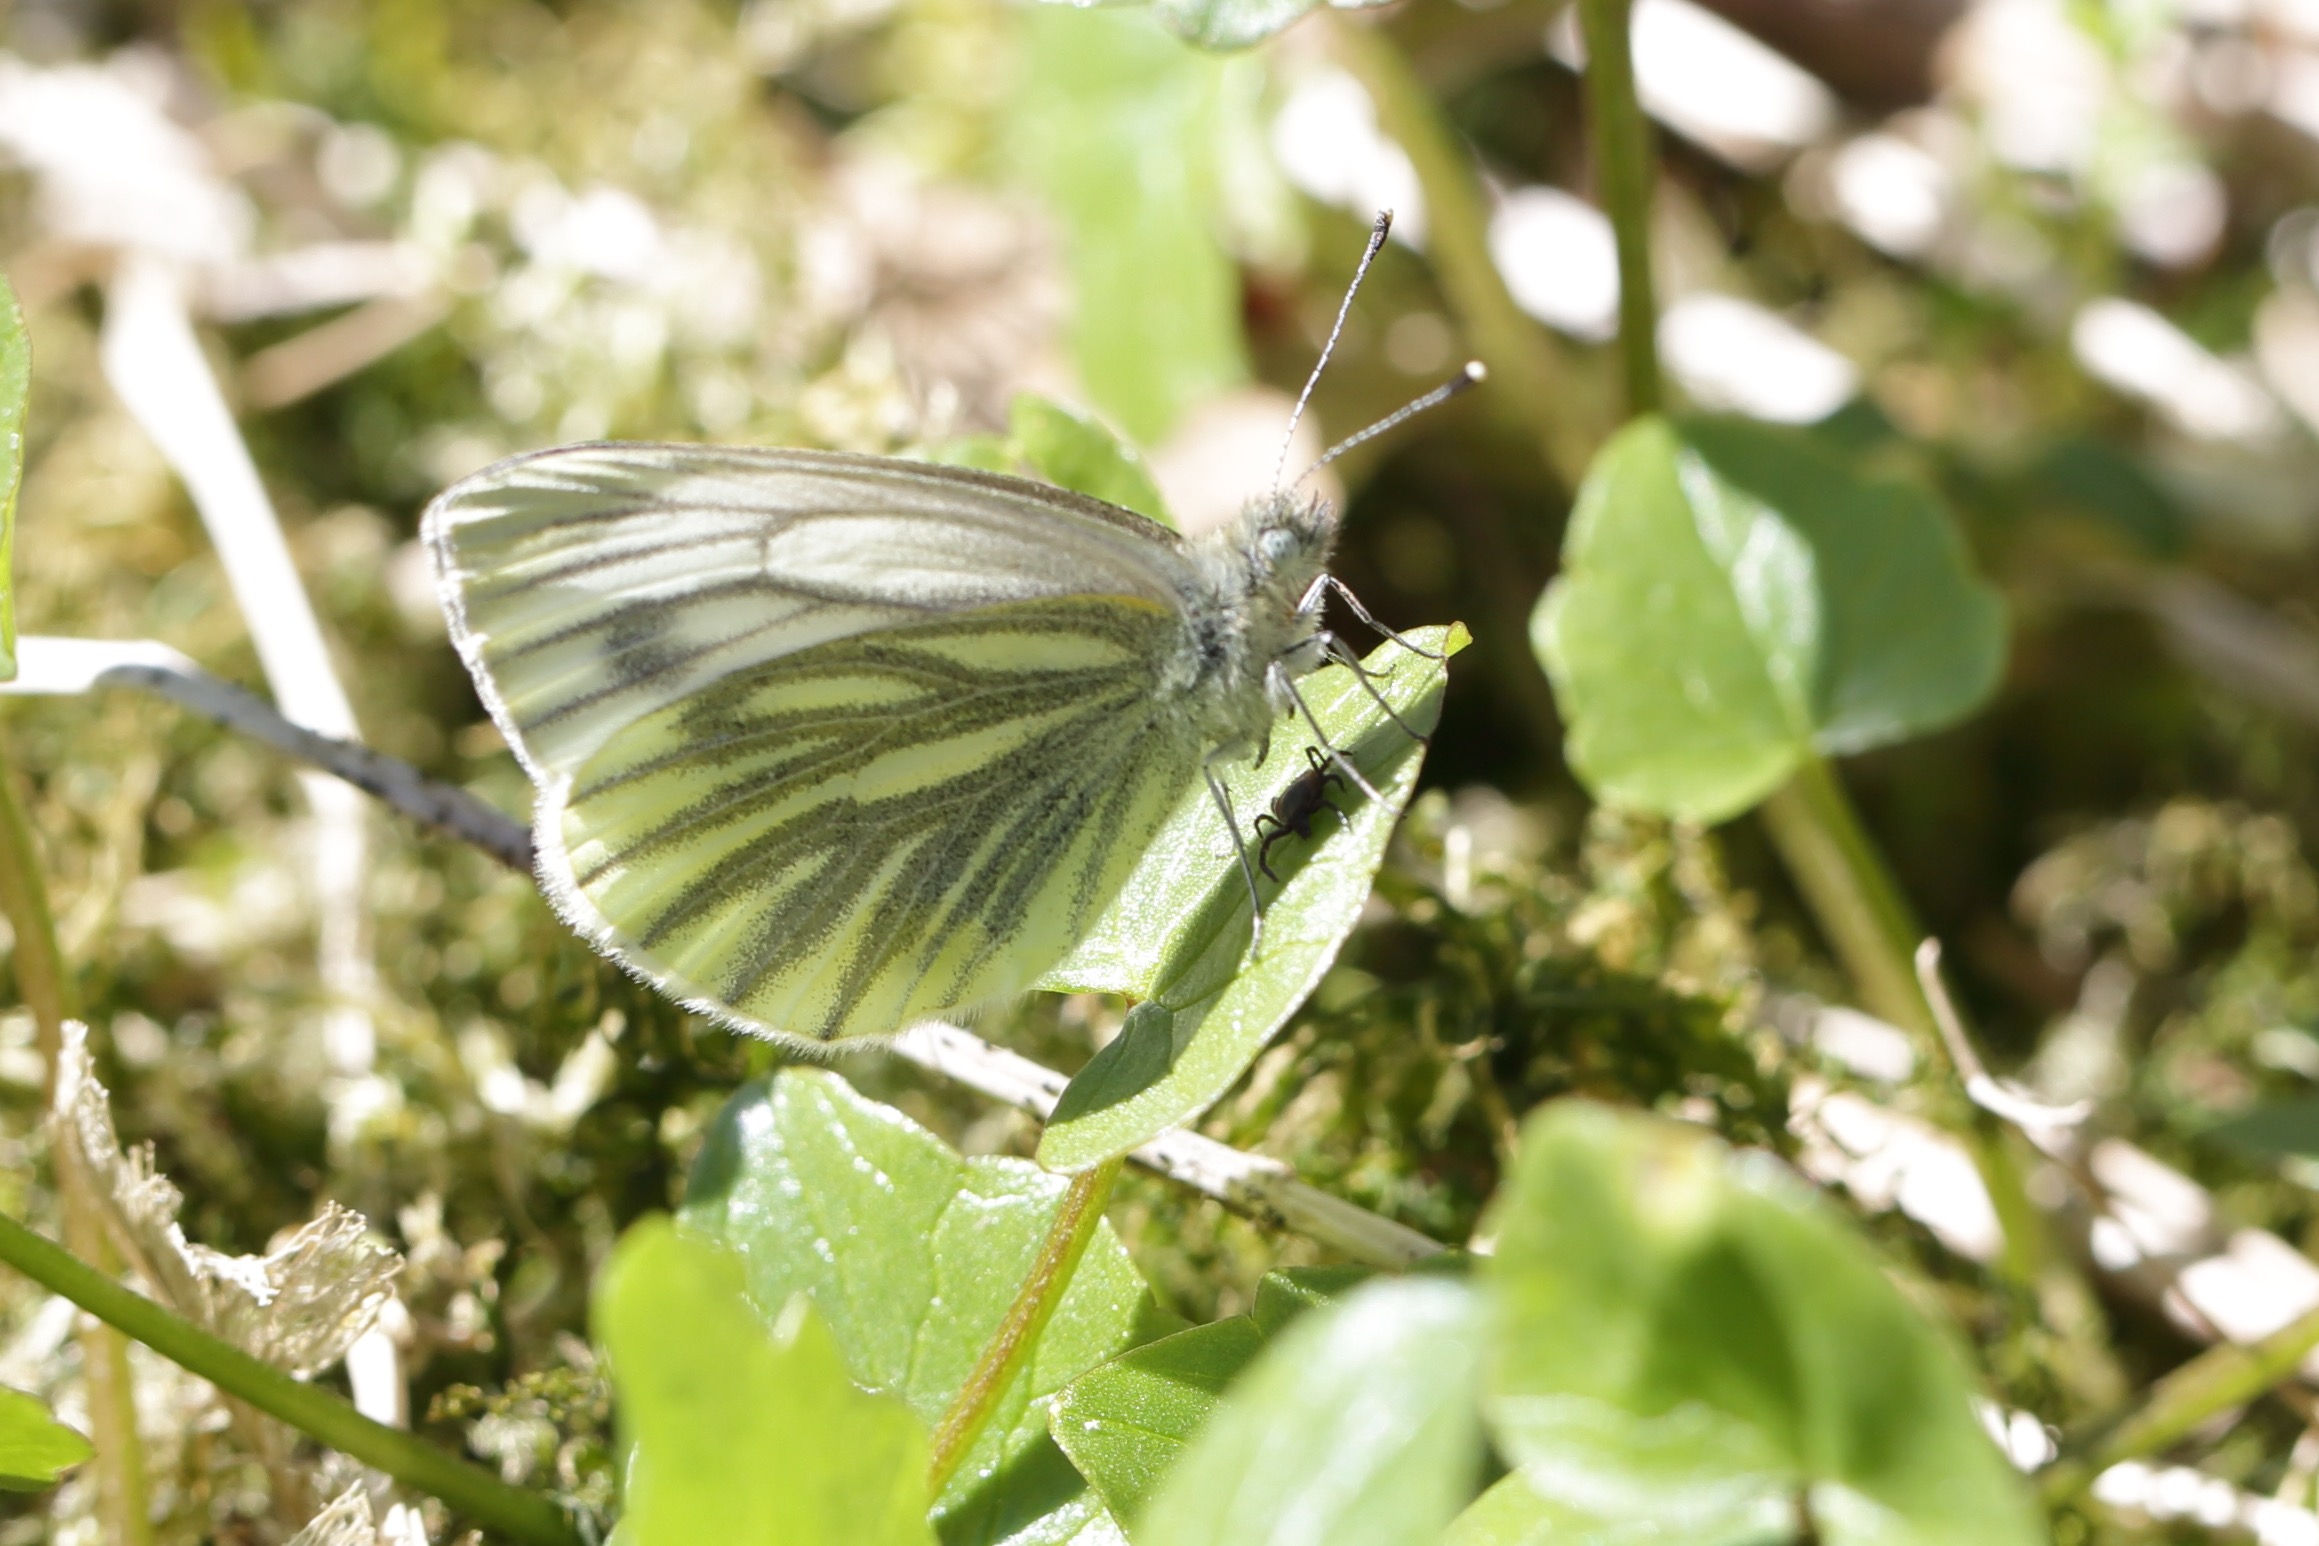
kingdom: Animalia
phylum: Arthropoda
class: Insecta
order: Lepidoptera
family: Pieridae
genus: Pieris
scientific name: Pieris napi
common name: Grønåret kålsommerfugl
